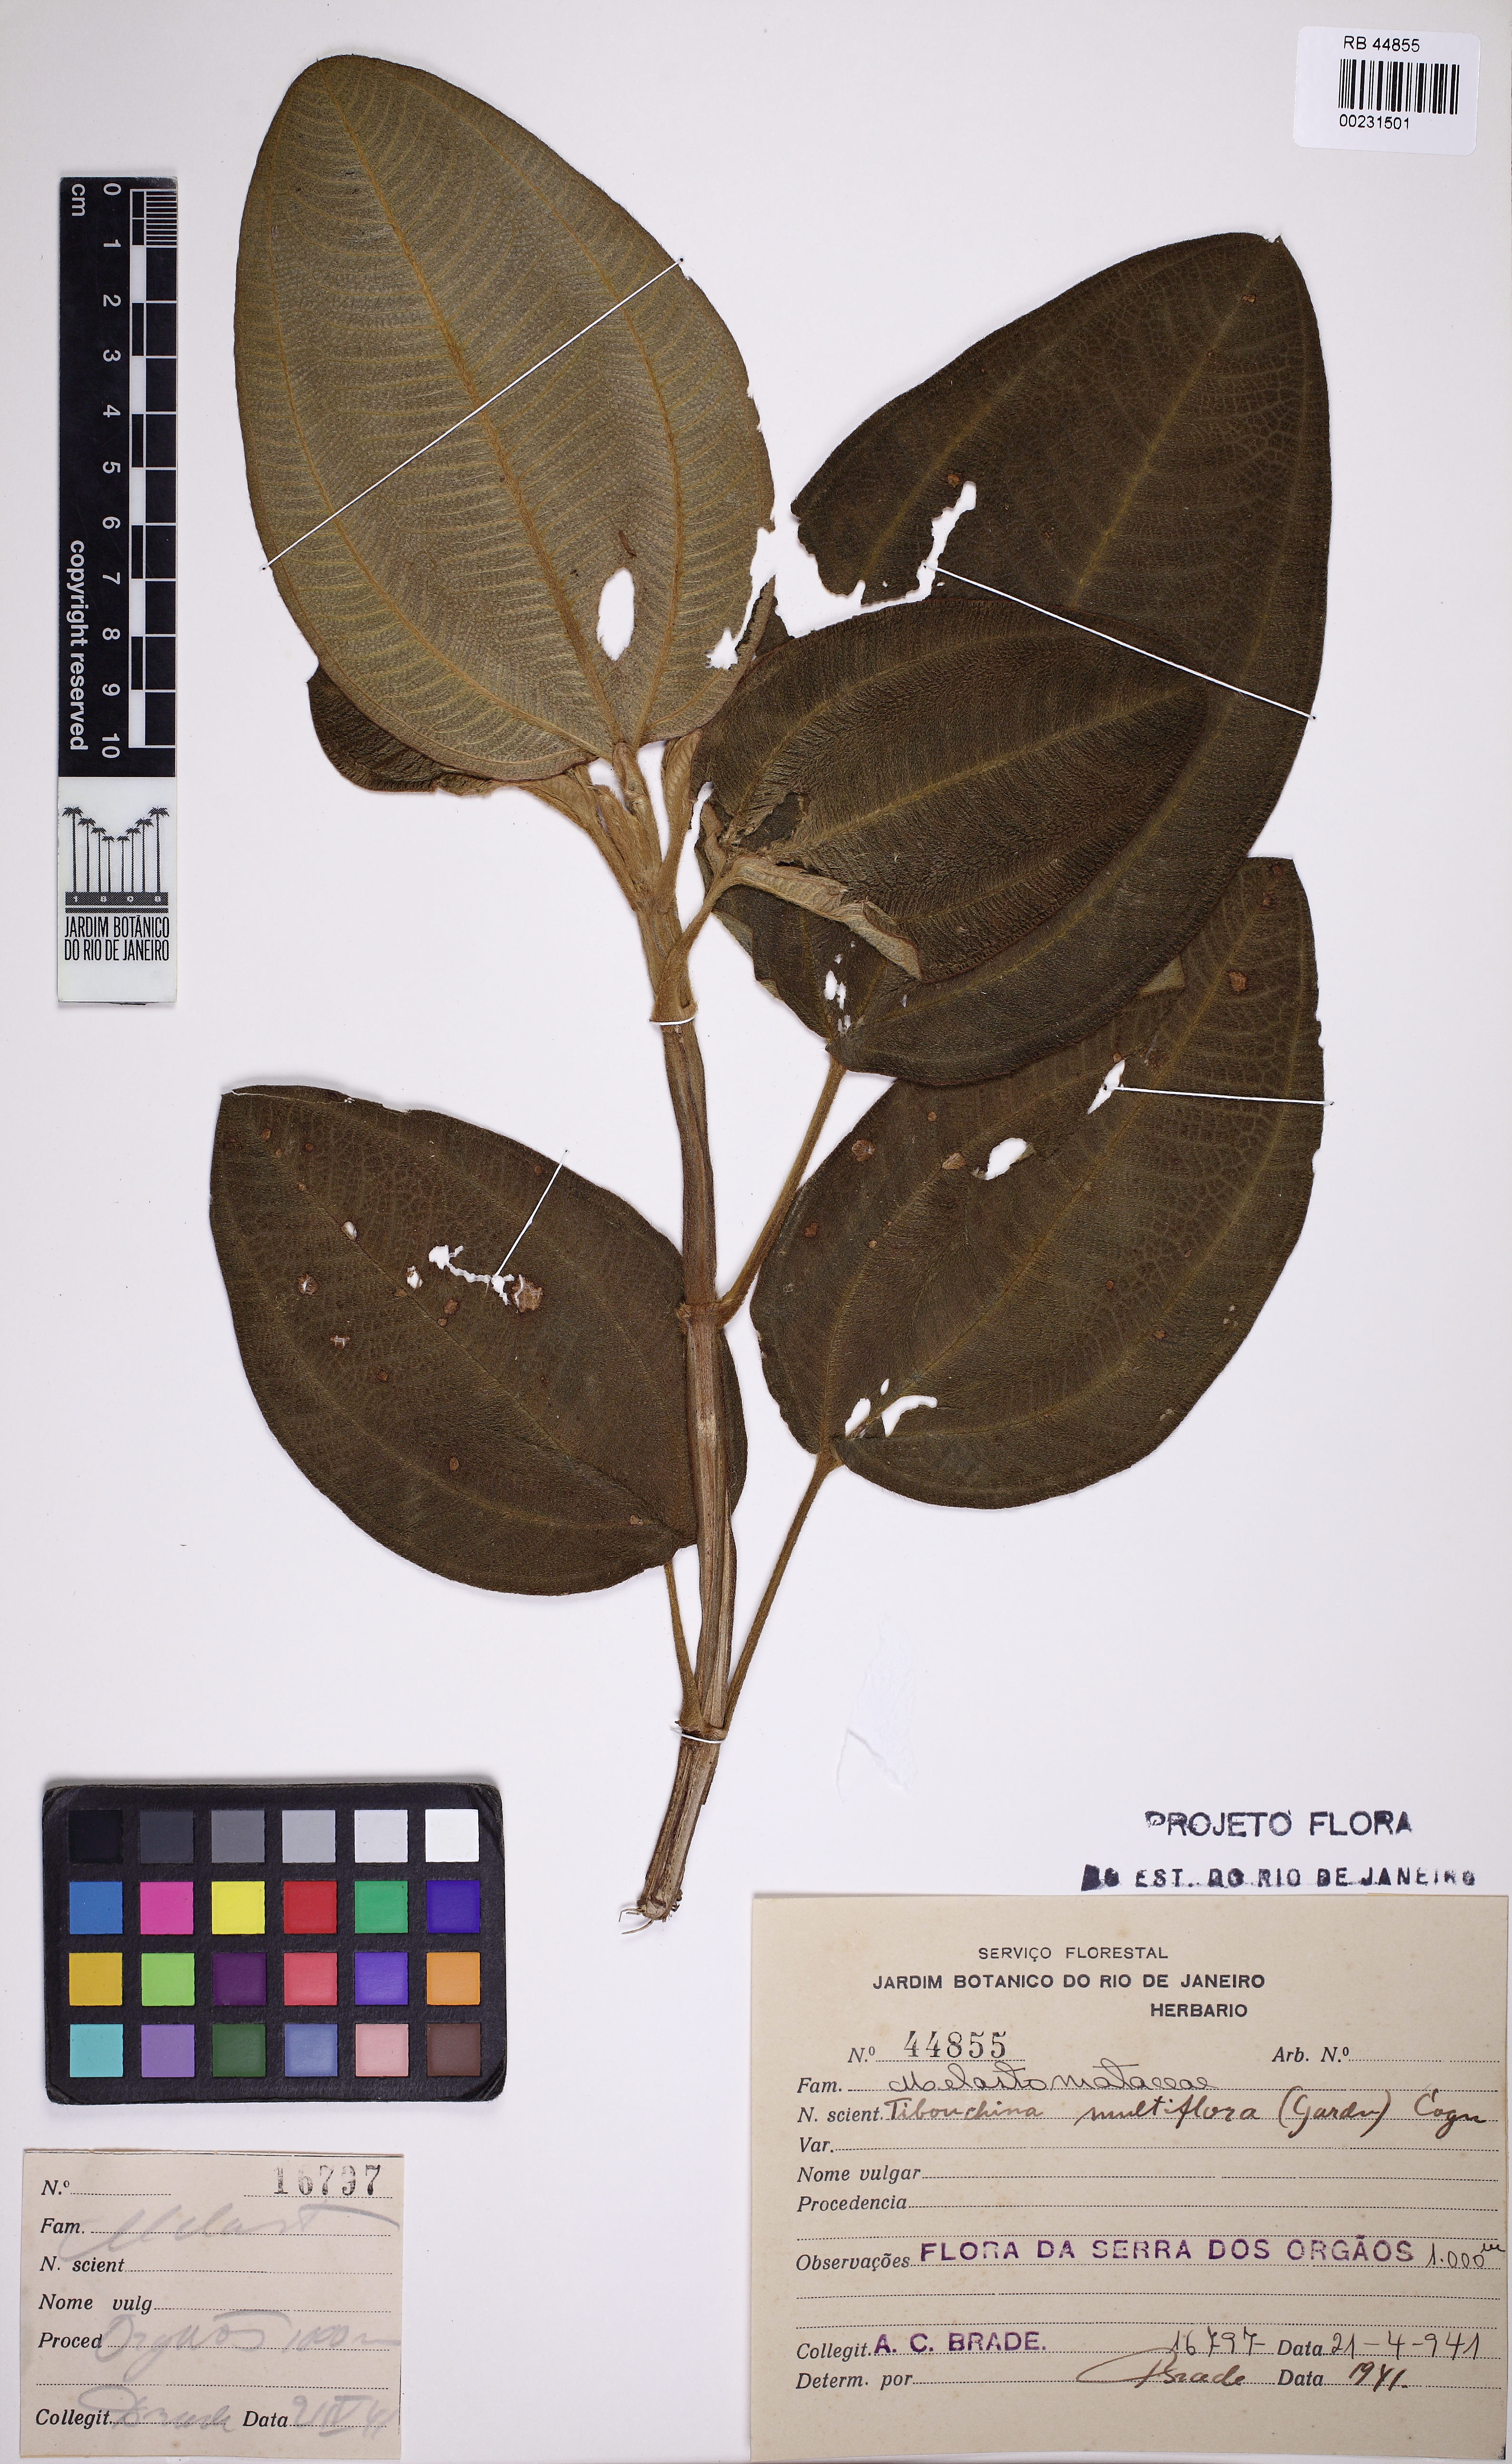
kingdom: Plantae
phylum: Tracheophyta
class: Magnoliopsida
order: Myrtales
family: Melastomataceae
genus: Chaetogastra
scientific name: Chaetogastra geitneriana
